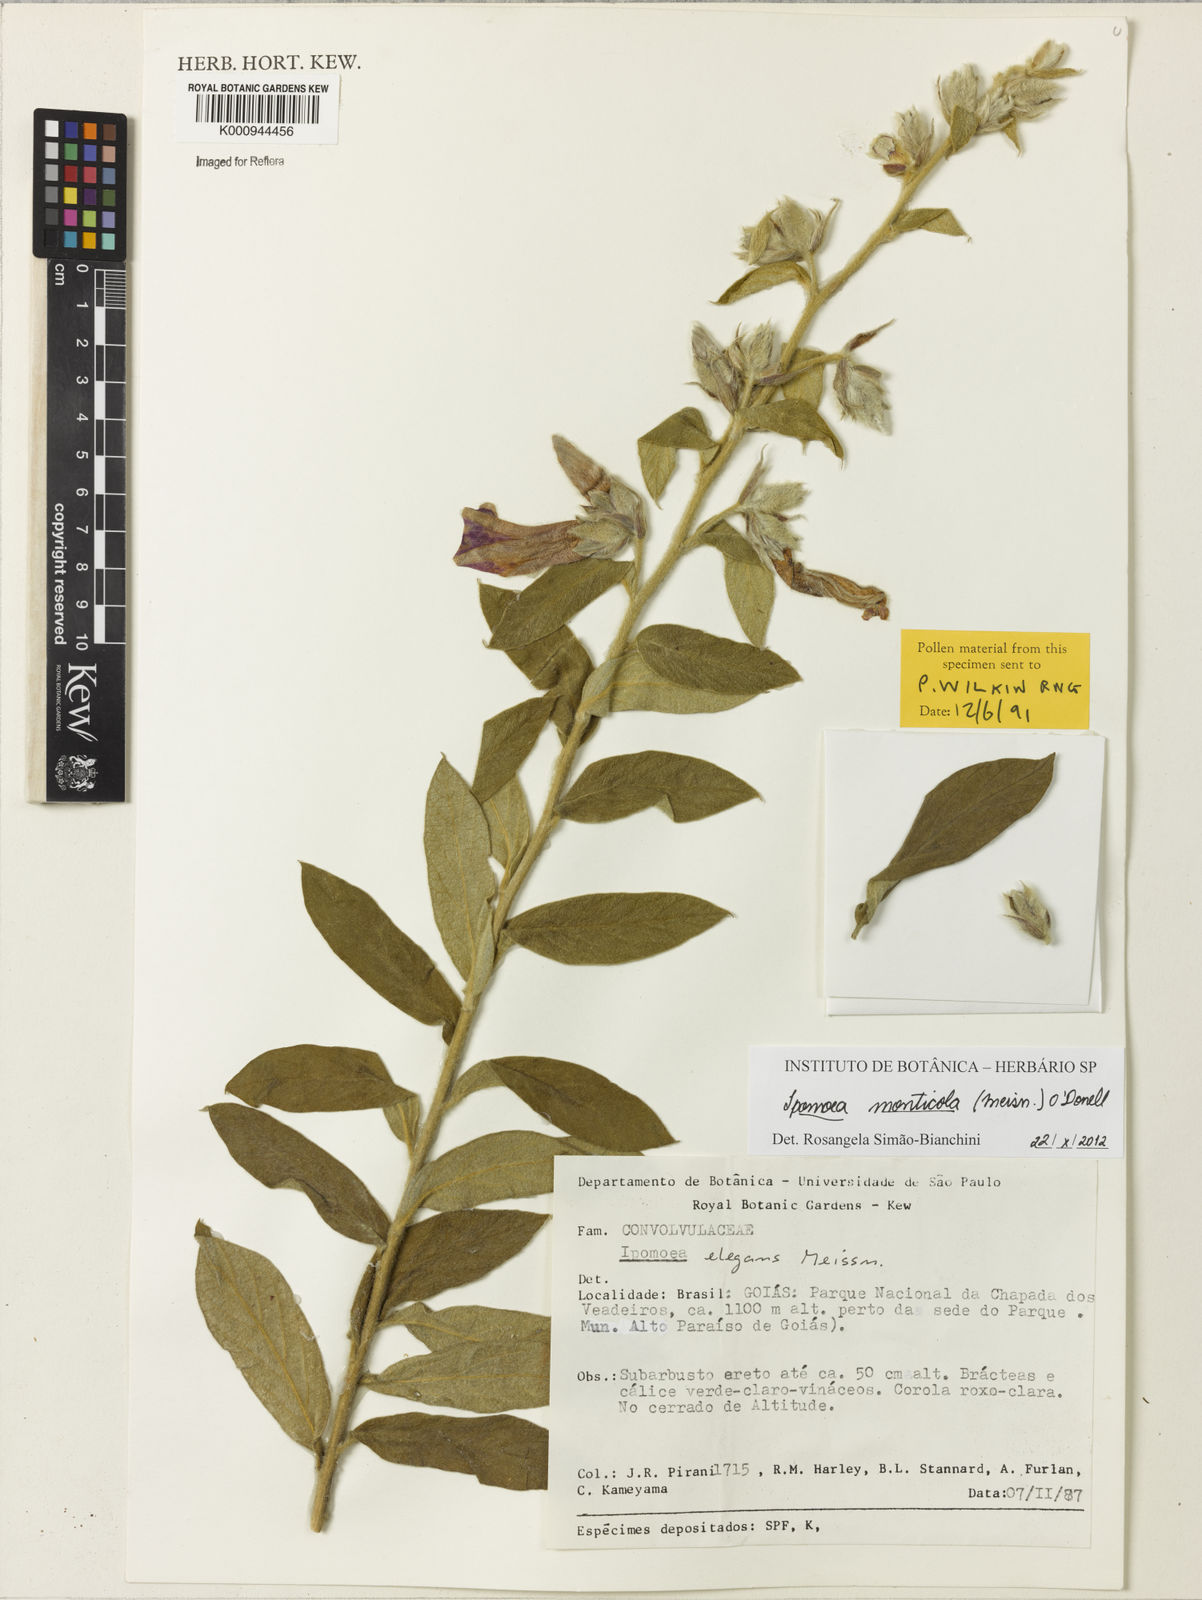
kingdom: Plantae
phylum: Tracheophyta
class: Magnoliopsida
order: Solanales
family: Convolvulaceae
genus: Ipomoea
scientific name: Ipomoea dasycarpa
